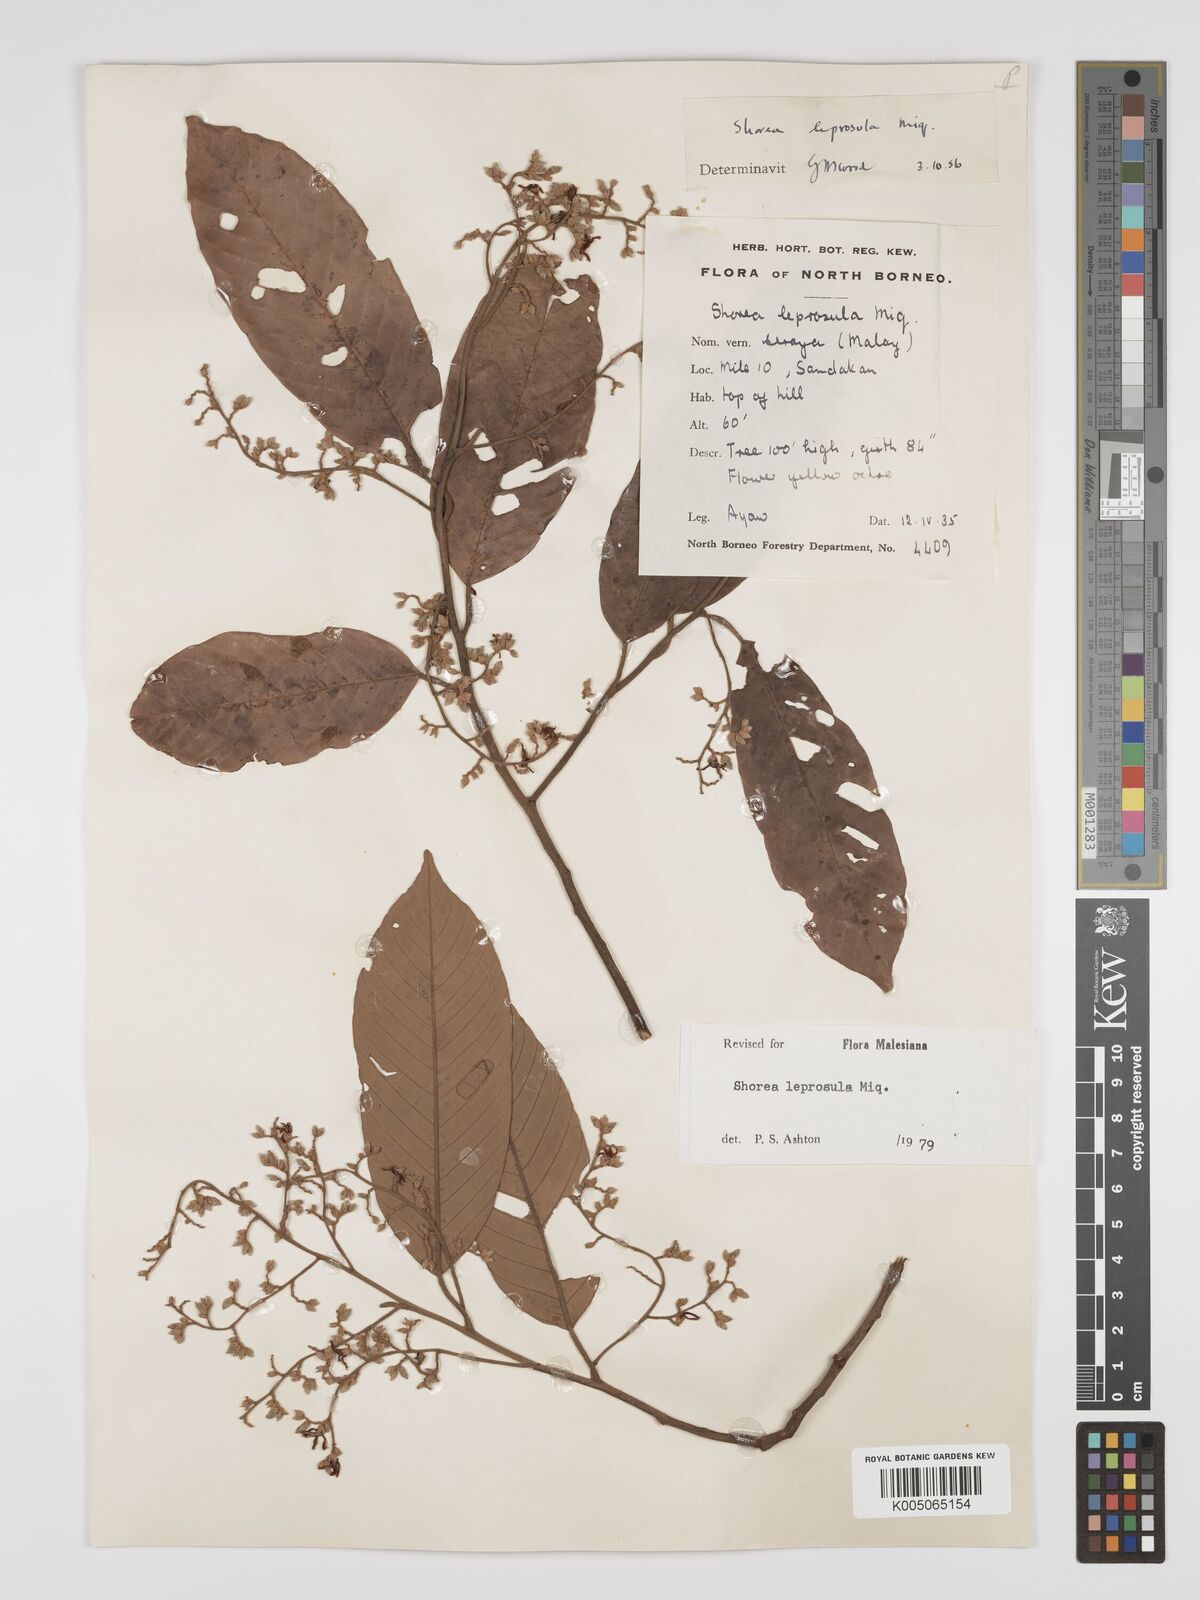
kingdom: Plantae
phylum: Tracheophyta
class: Magnoliopsida
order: Malvales
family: Dipterocarpaceae
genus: Shorea
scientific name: Shorea leprosula
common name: Light red meranti
